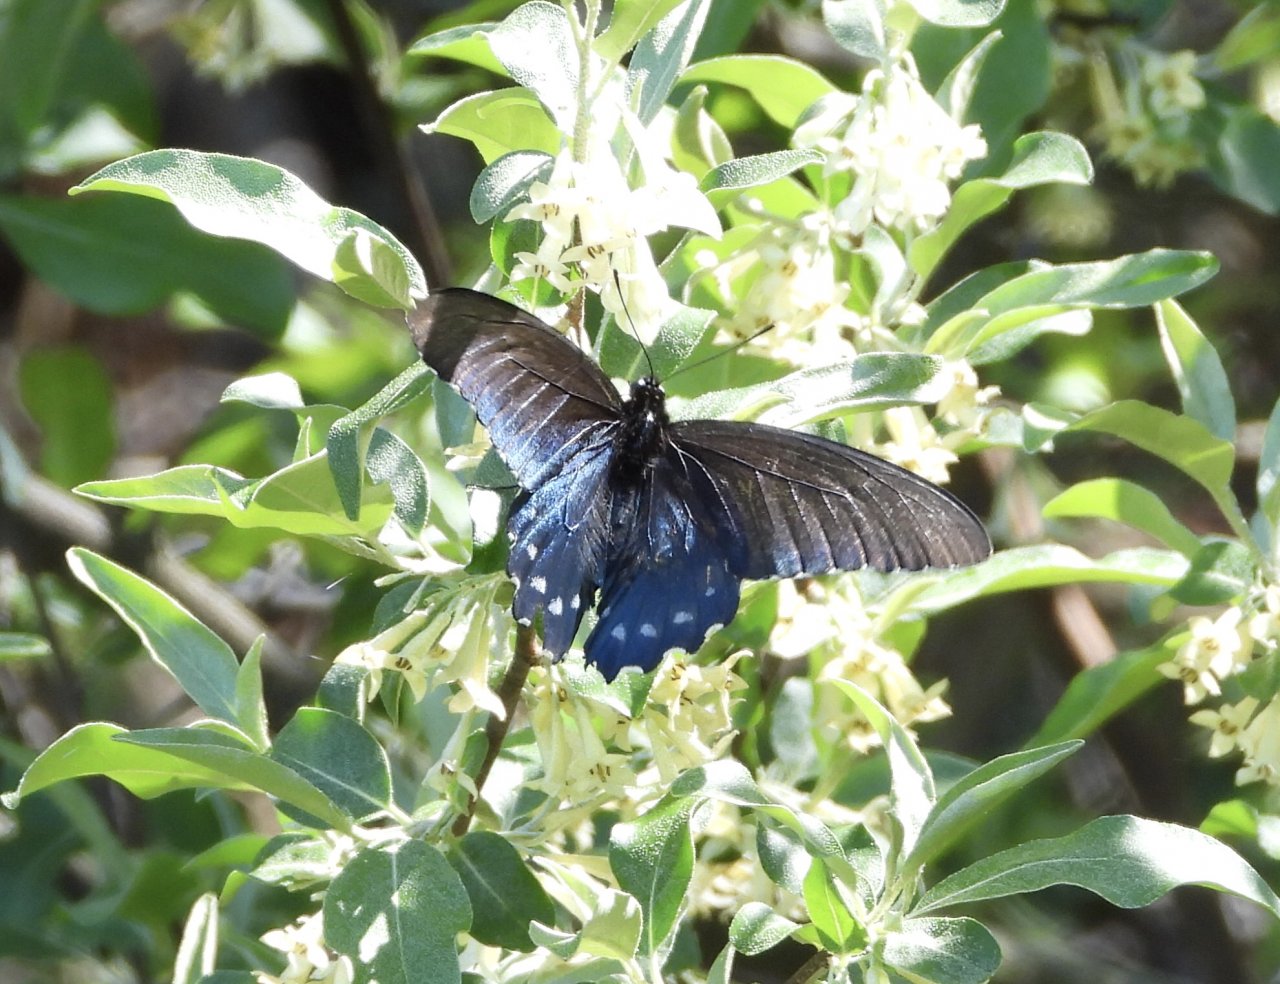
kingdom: Animalia
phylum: Arthropoda
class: Insecta
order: Lepidoptera
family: Papilionidae
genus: Battus
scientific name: Battus philenor
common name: Pipevine Swallowtail
